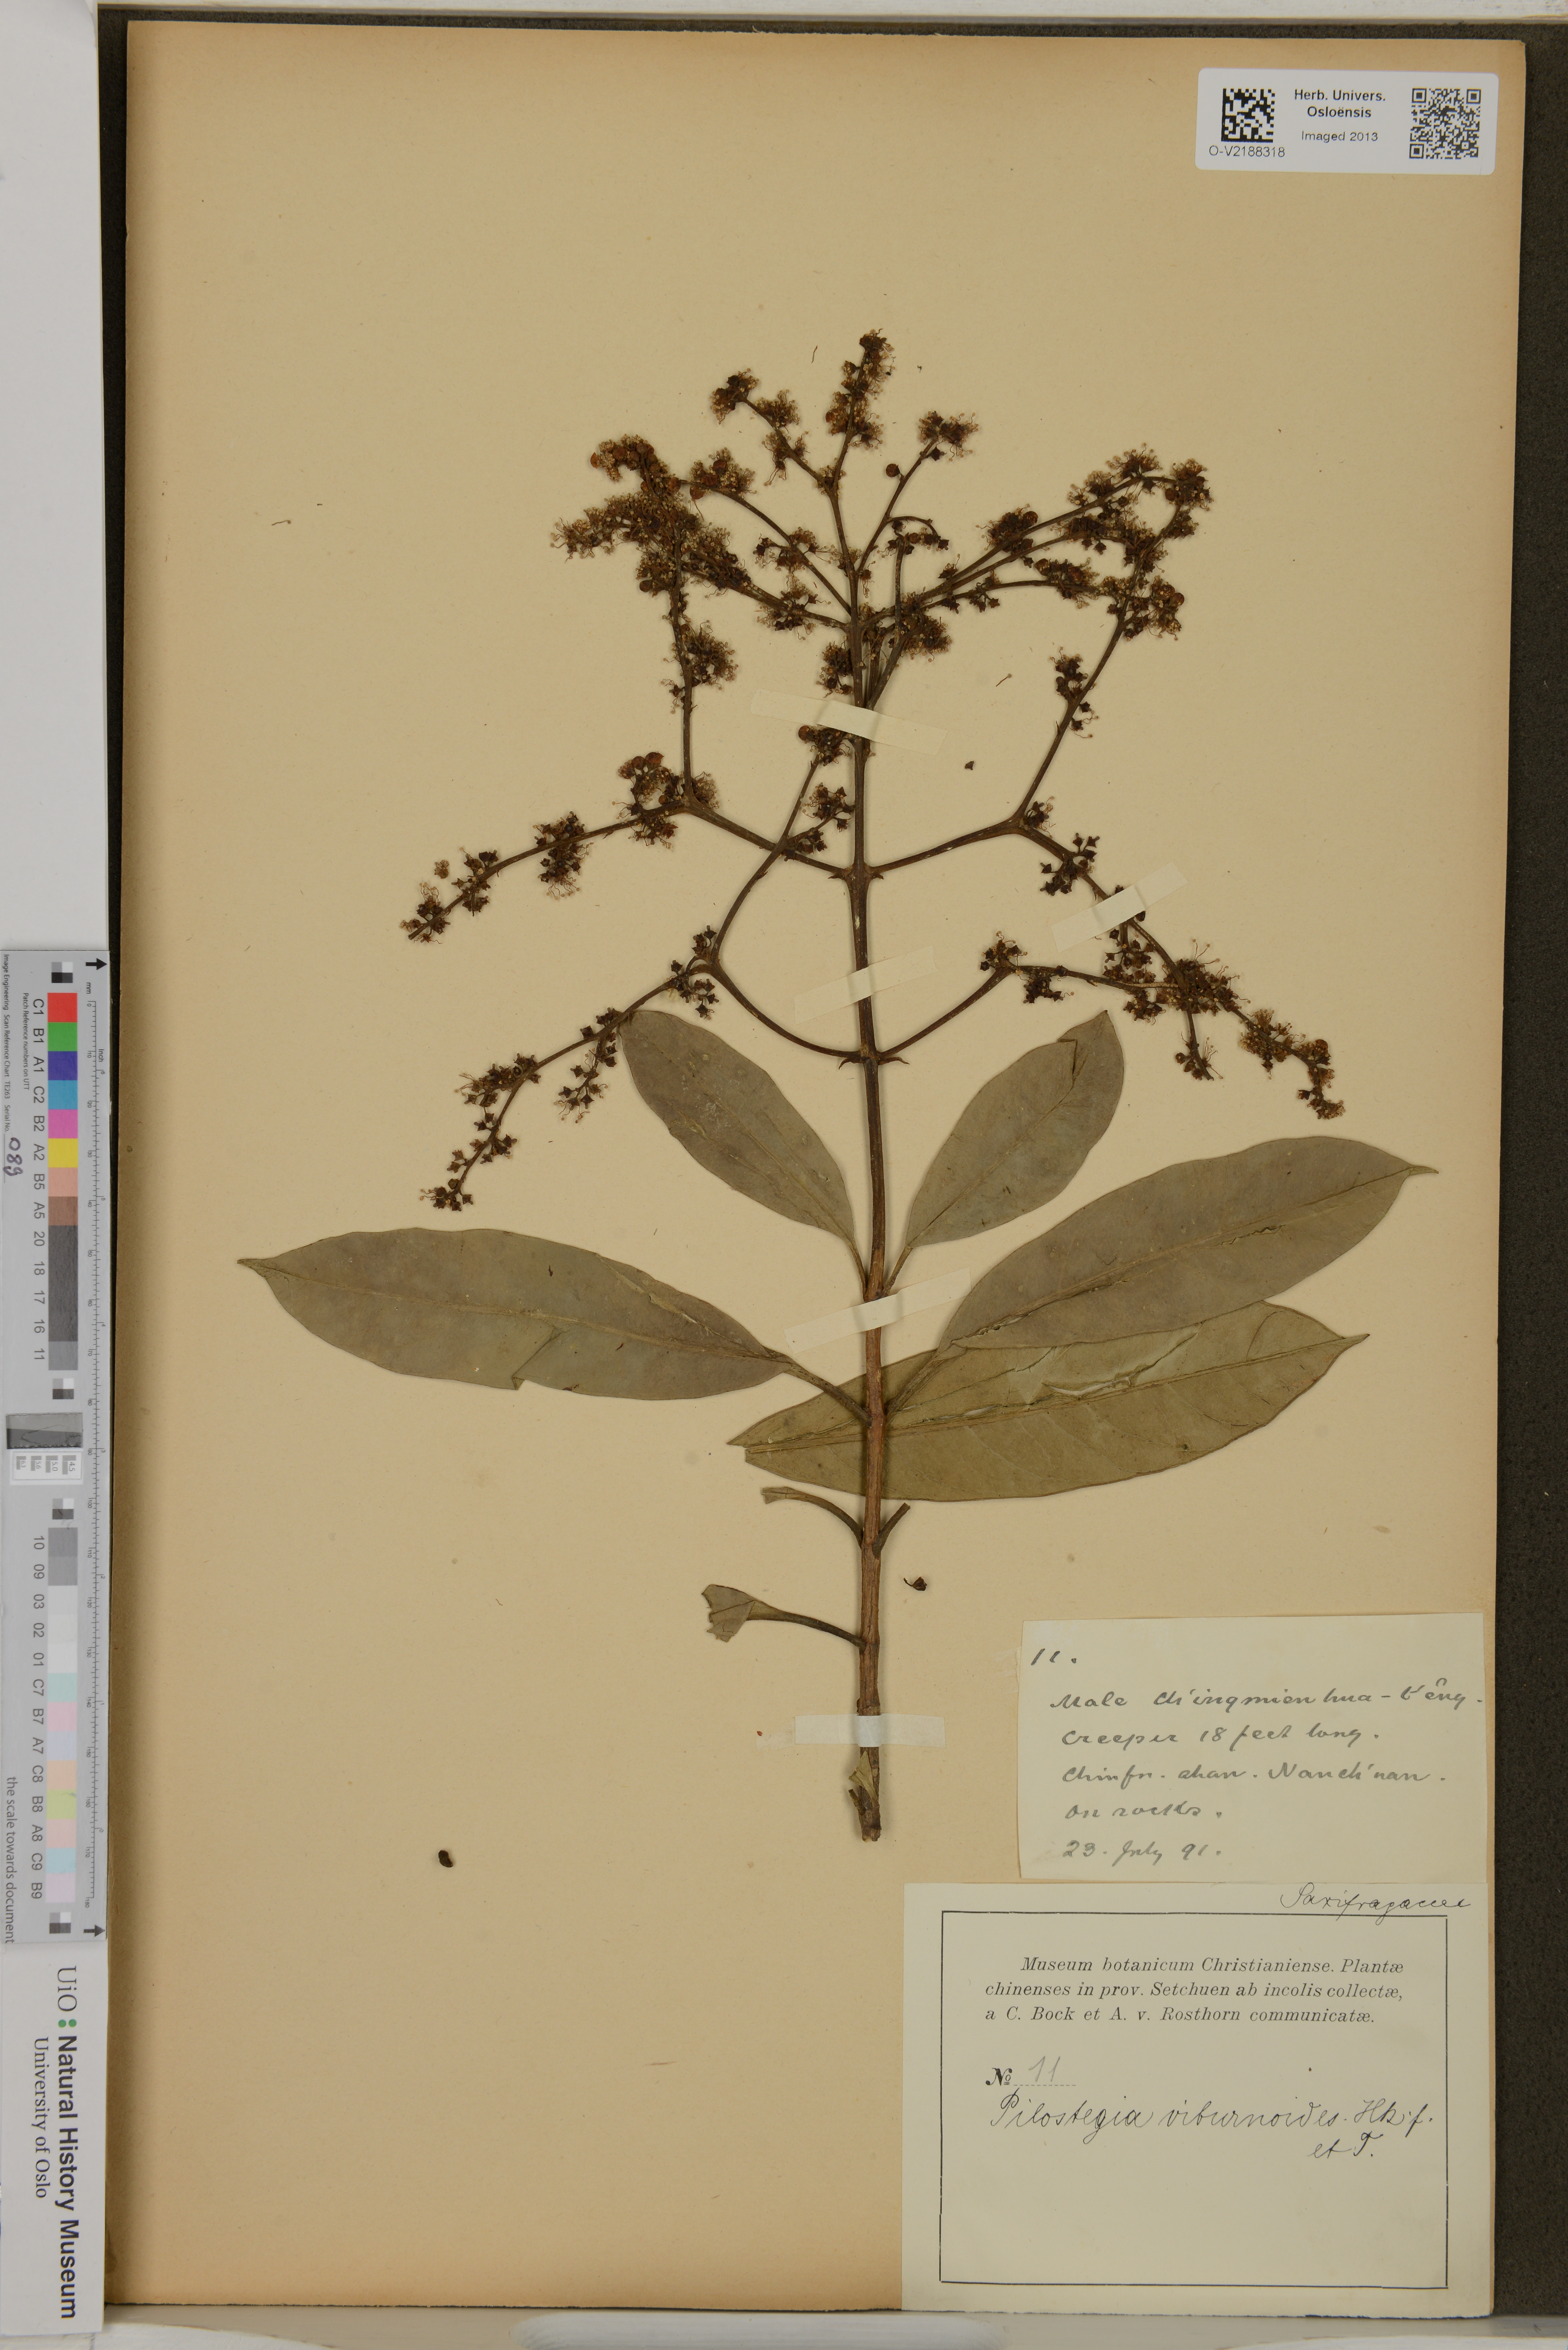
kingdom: Plantae
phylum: Tracheophyta
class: Magnoliopsida
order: Cornales
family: Hydrangeaceae
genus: Hydrangea
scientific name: Hydrangea viburnoides
